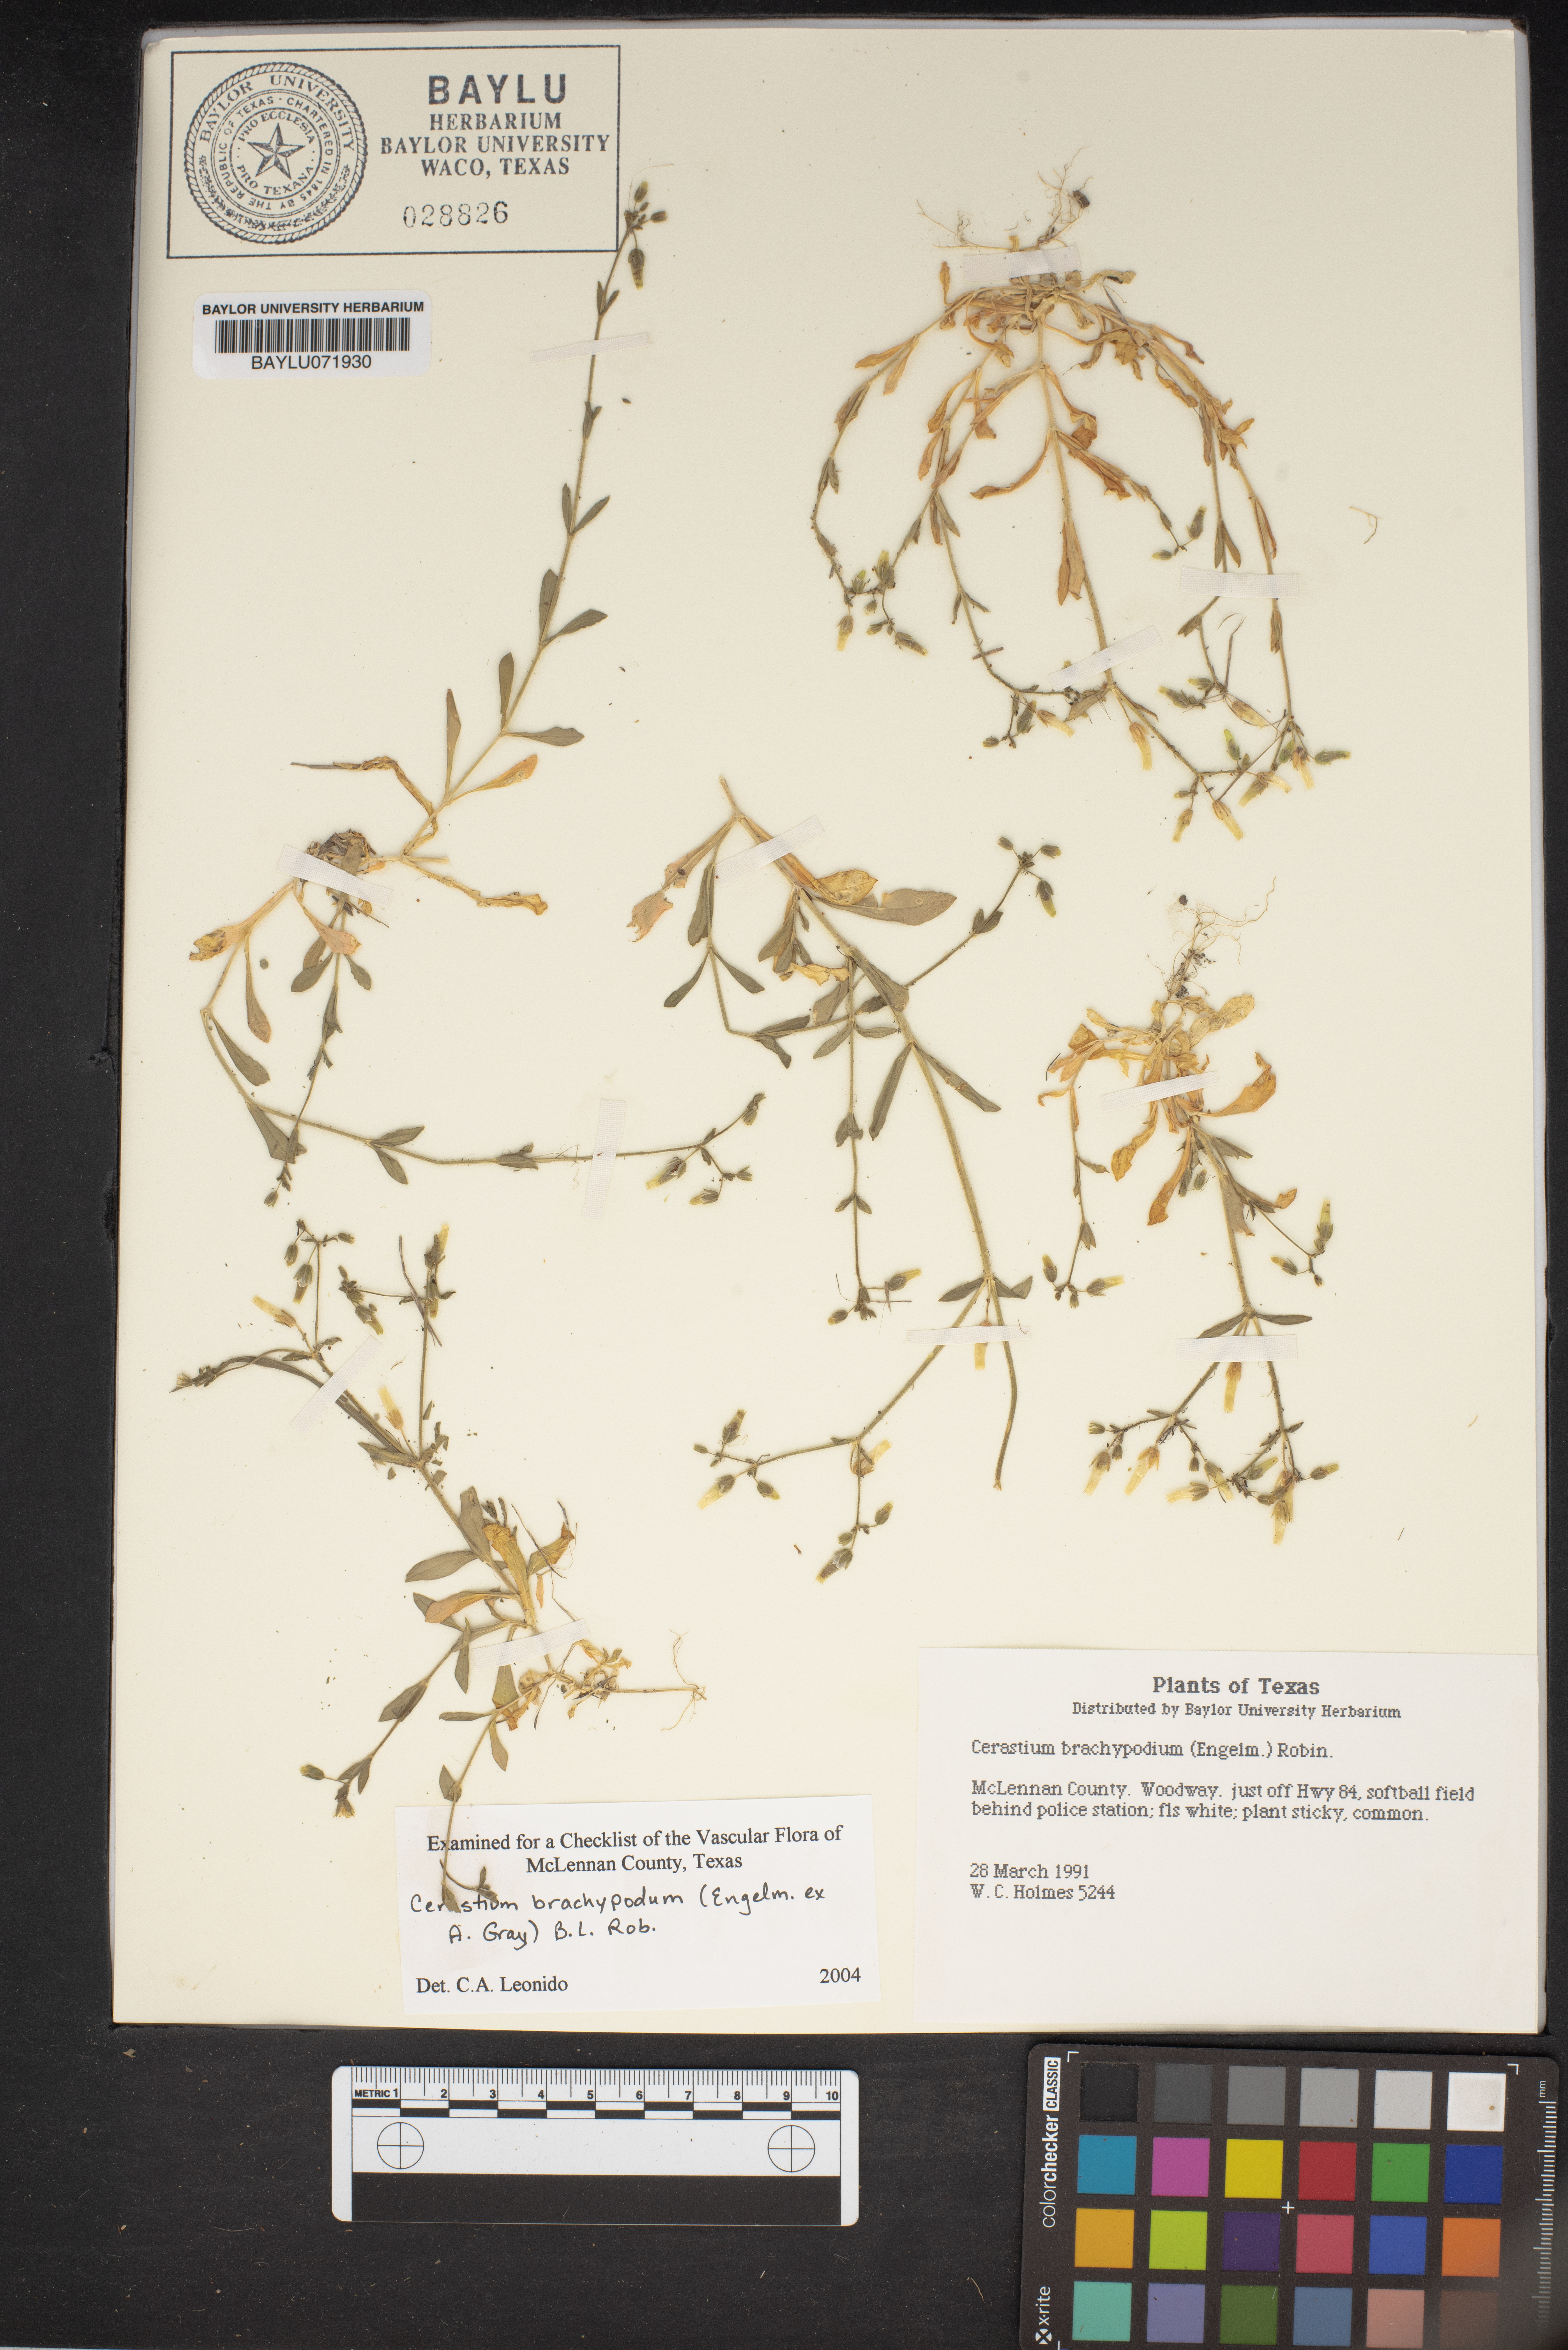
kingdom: Plantae
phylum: Tracheophyta
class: Magnoliopsida
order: Caryophyllales
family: Caryophyllaceae
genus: Cerastium
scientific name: Cerastium brachypodum
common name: Short-pedicelled nodding chickweed
